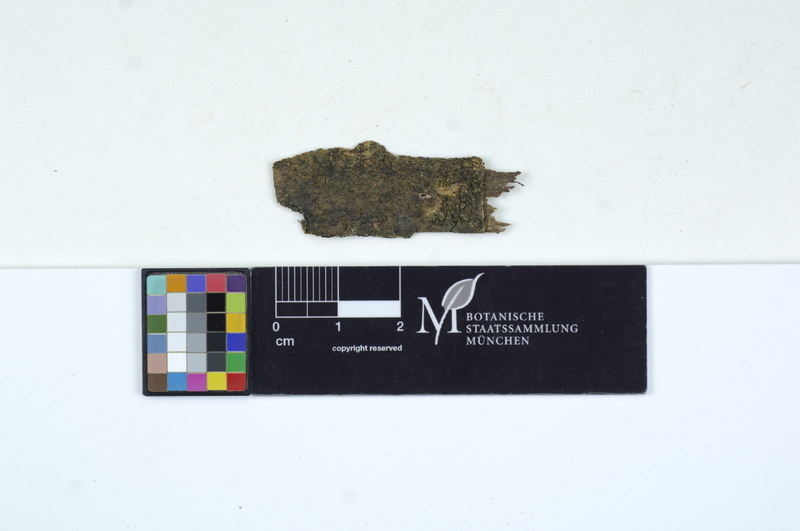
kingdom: Plantae
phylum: Tracheophyta
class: Magnoliopsida
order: Lamiales
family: Oleaceae
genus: Fraxinus
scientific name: Fraxinus
